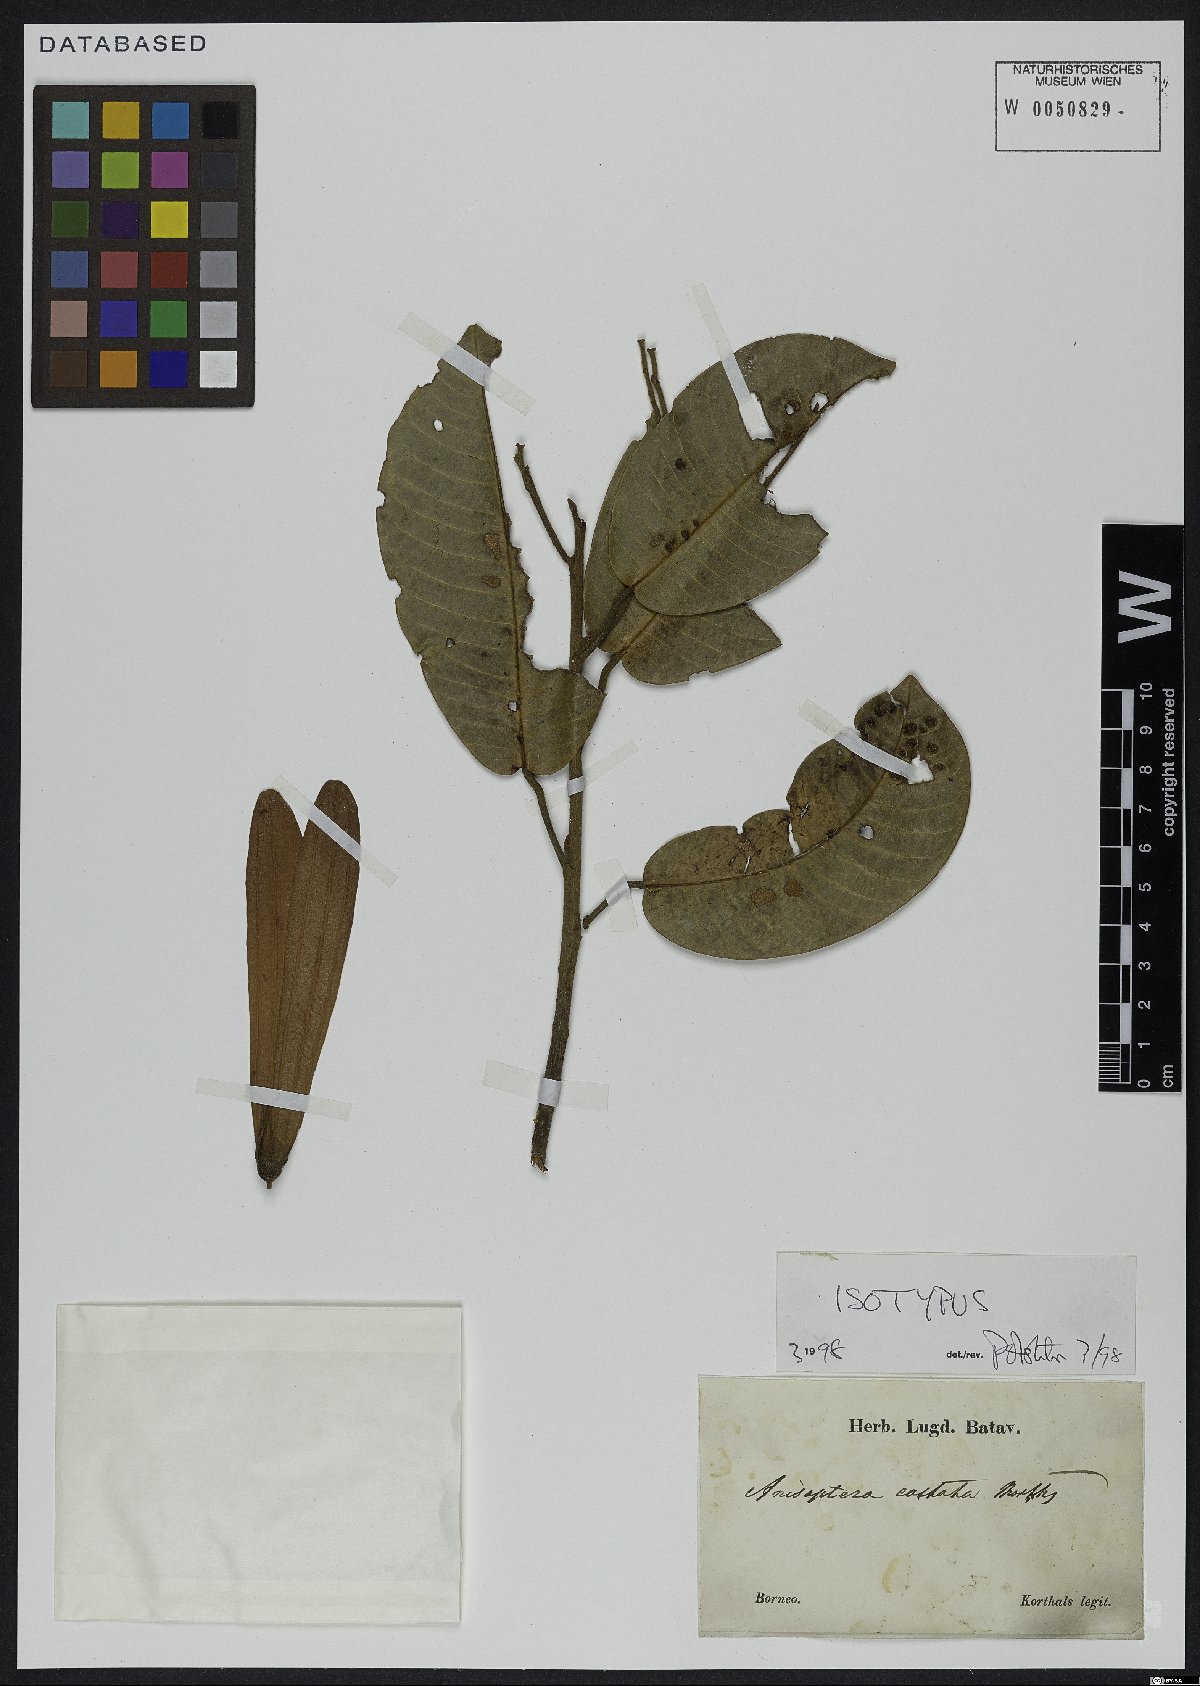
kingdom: Plantae
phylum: Tracheophyta
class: Magnoliopsida
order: Malvales
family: Dipterocarpaceae
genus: Anisoptera
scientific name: Anisoptera costata
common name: Mersawa
